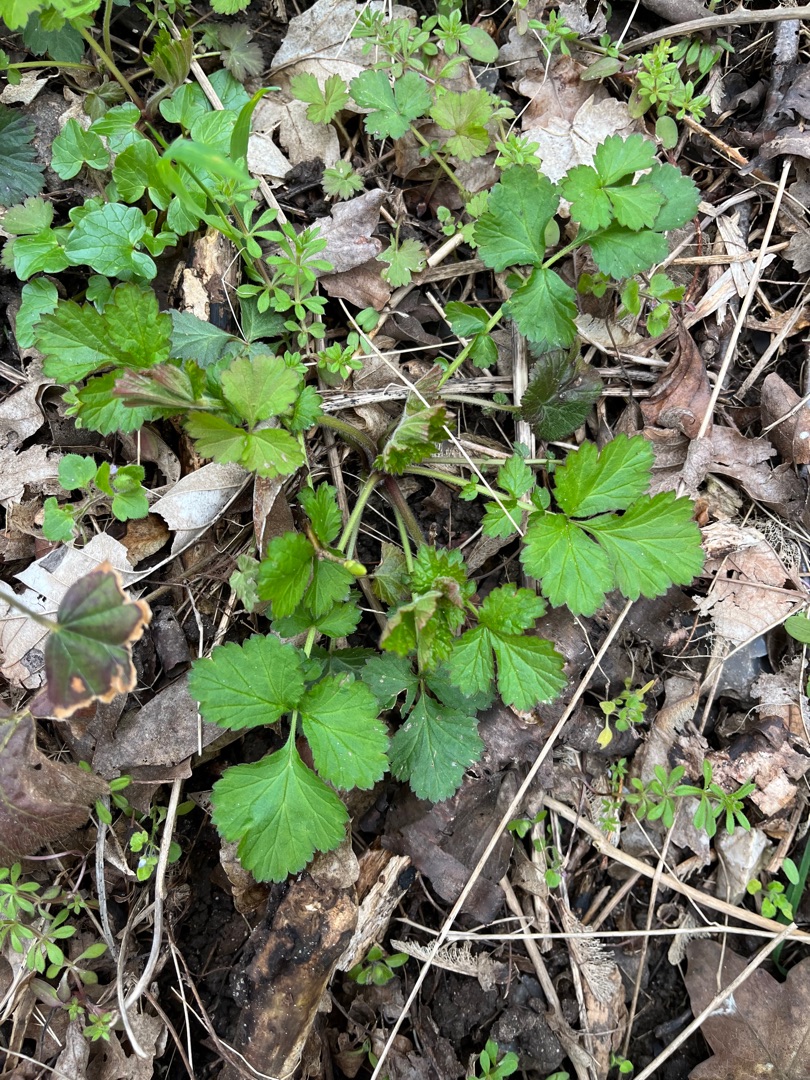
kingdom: Plantae
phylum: Tracheophyta
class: Magnoliopsida
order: Rosales
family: Rosaceae
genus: Geum
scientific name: Geum urbanum
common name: Feber-nellikerod
